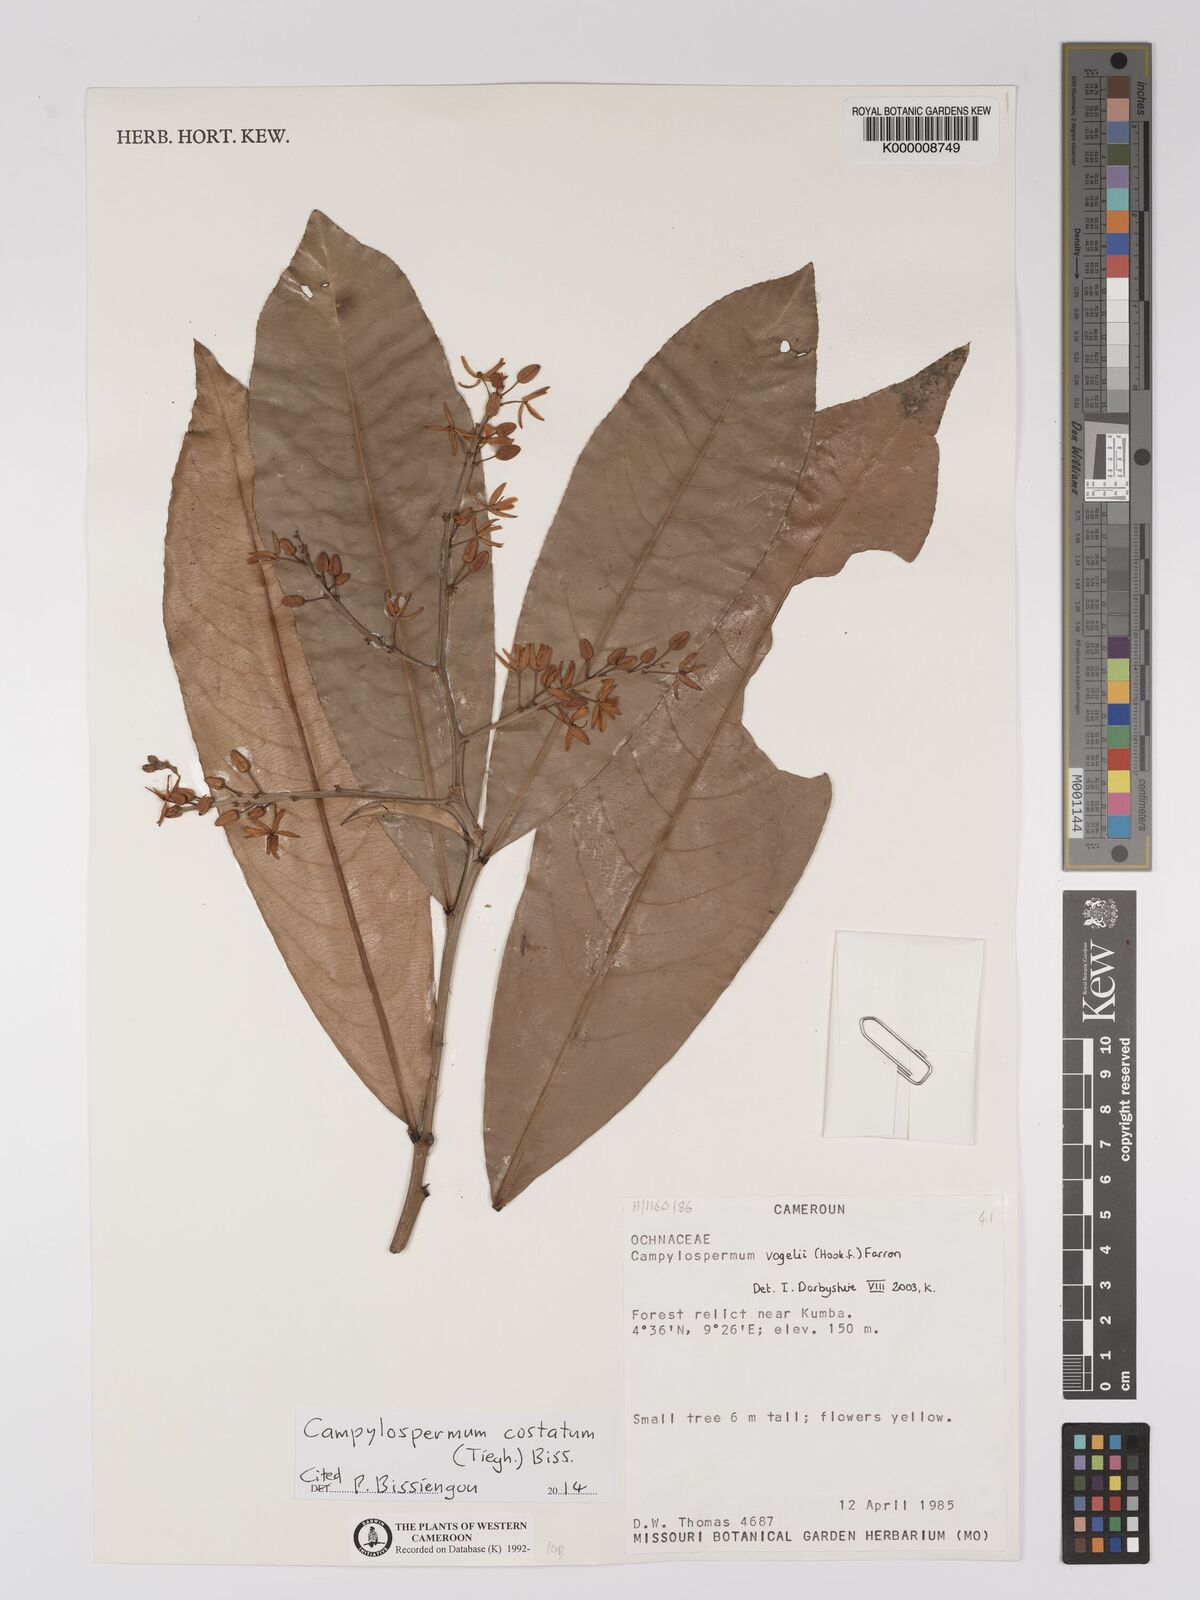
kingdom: Plantae
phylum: Tracheophyta
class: Magnoliopsida
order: Malpighiales
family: Ochnaceae
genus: Campylospermum
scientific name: Campylospermum vogelii
